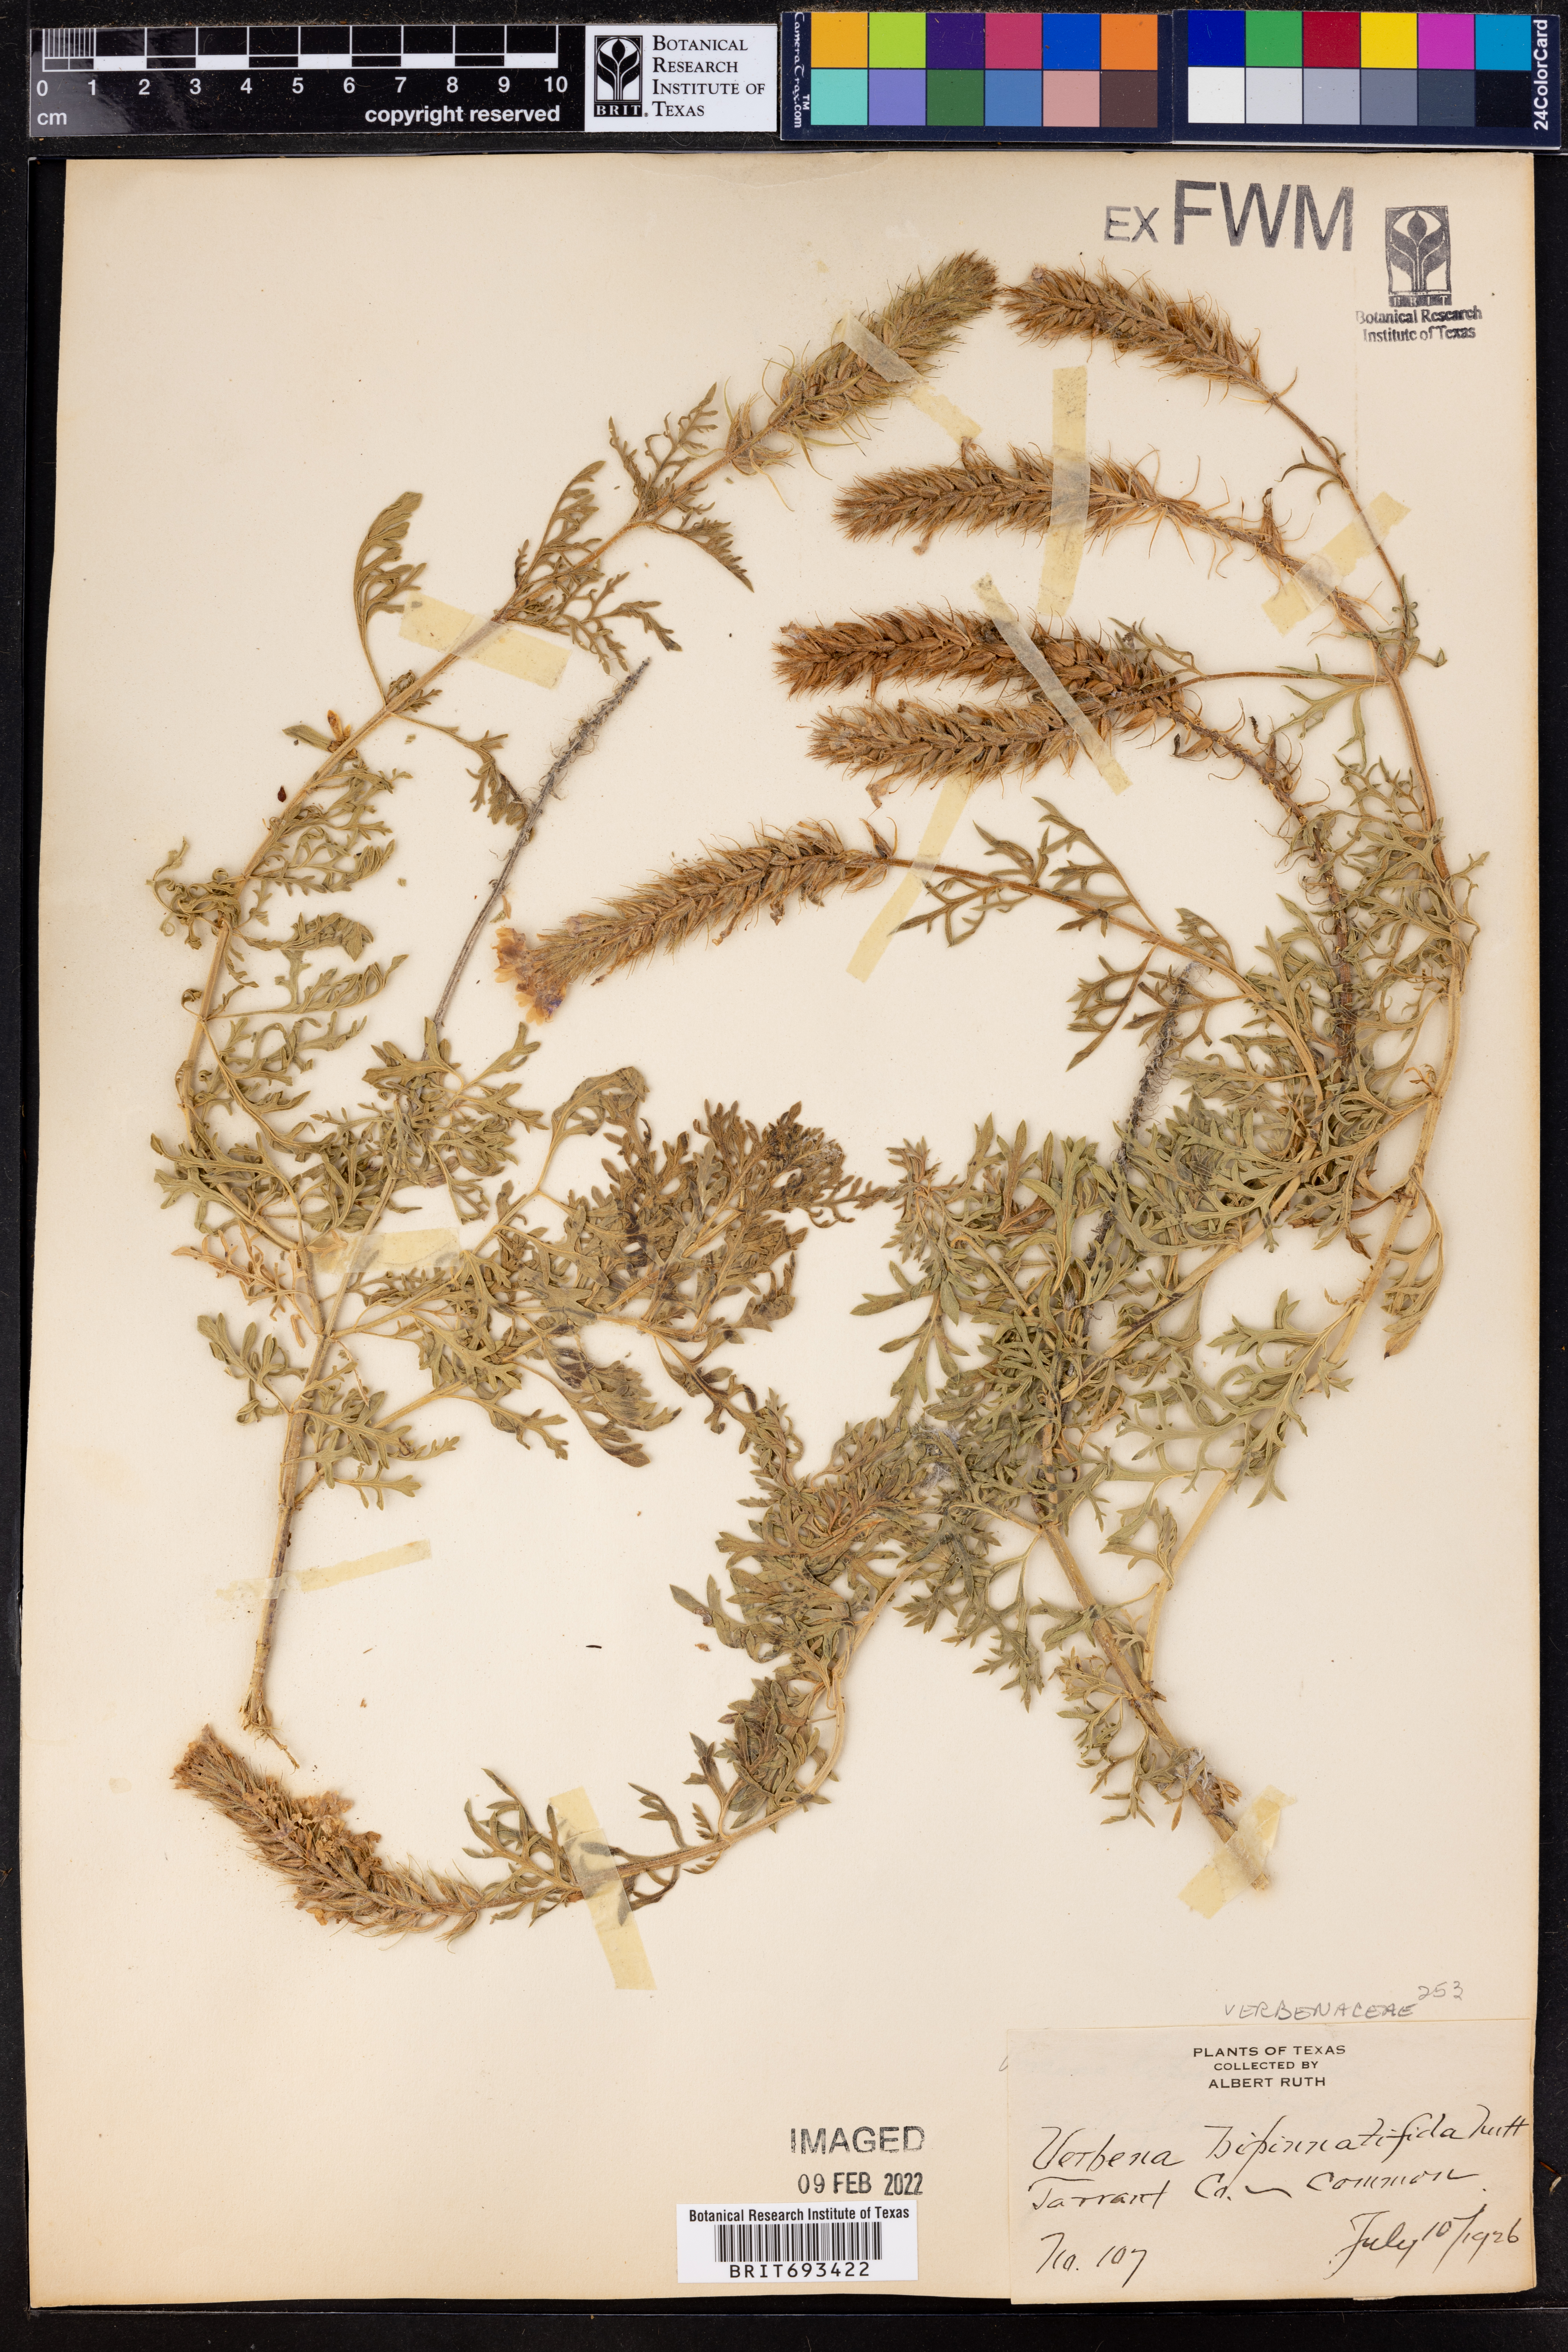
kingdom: Plantae
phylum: Tracheophyta
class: Magnoliopsida
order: Lamiales
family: Verbenaceae
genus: Verbena
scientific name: Verbena bipinnatifida
